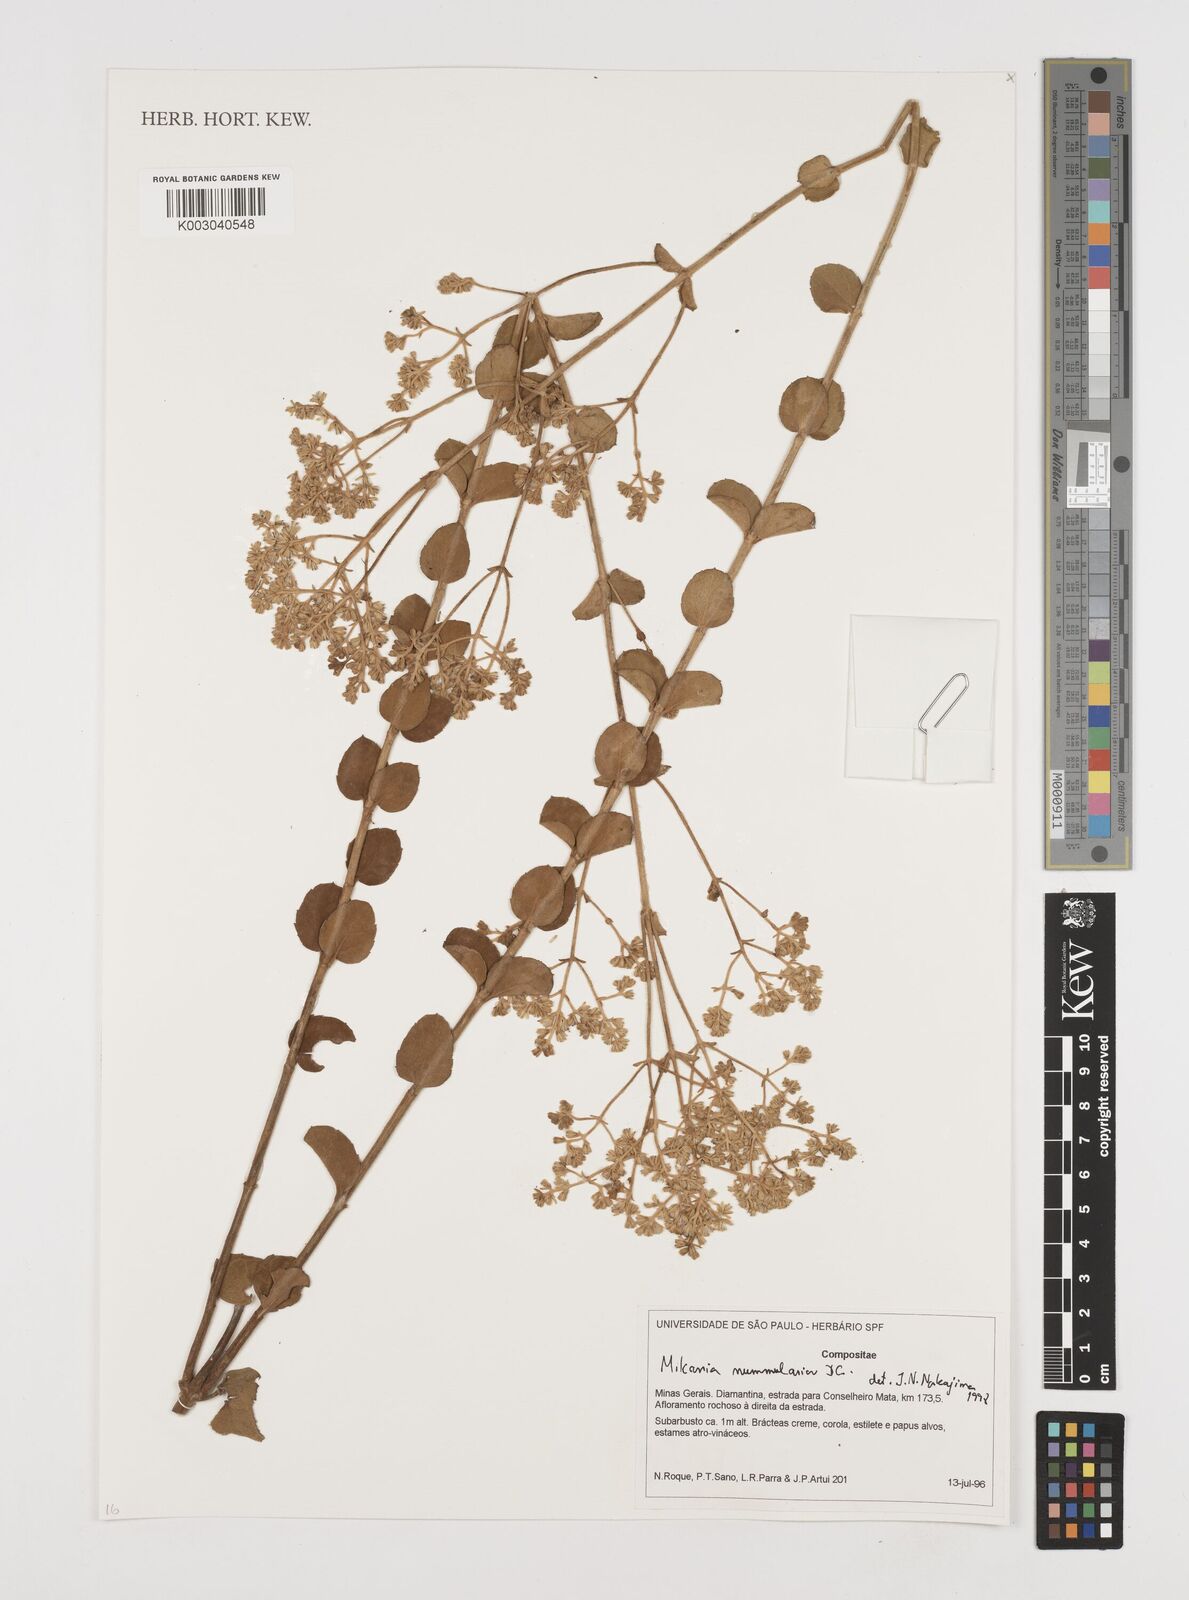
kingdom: Plantae
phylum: Tracheophyta
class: Magnoliopsida
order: Asterales
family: Asteraceae
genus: Mikania
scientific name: Mikania nummularia
